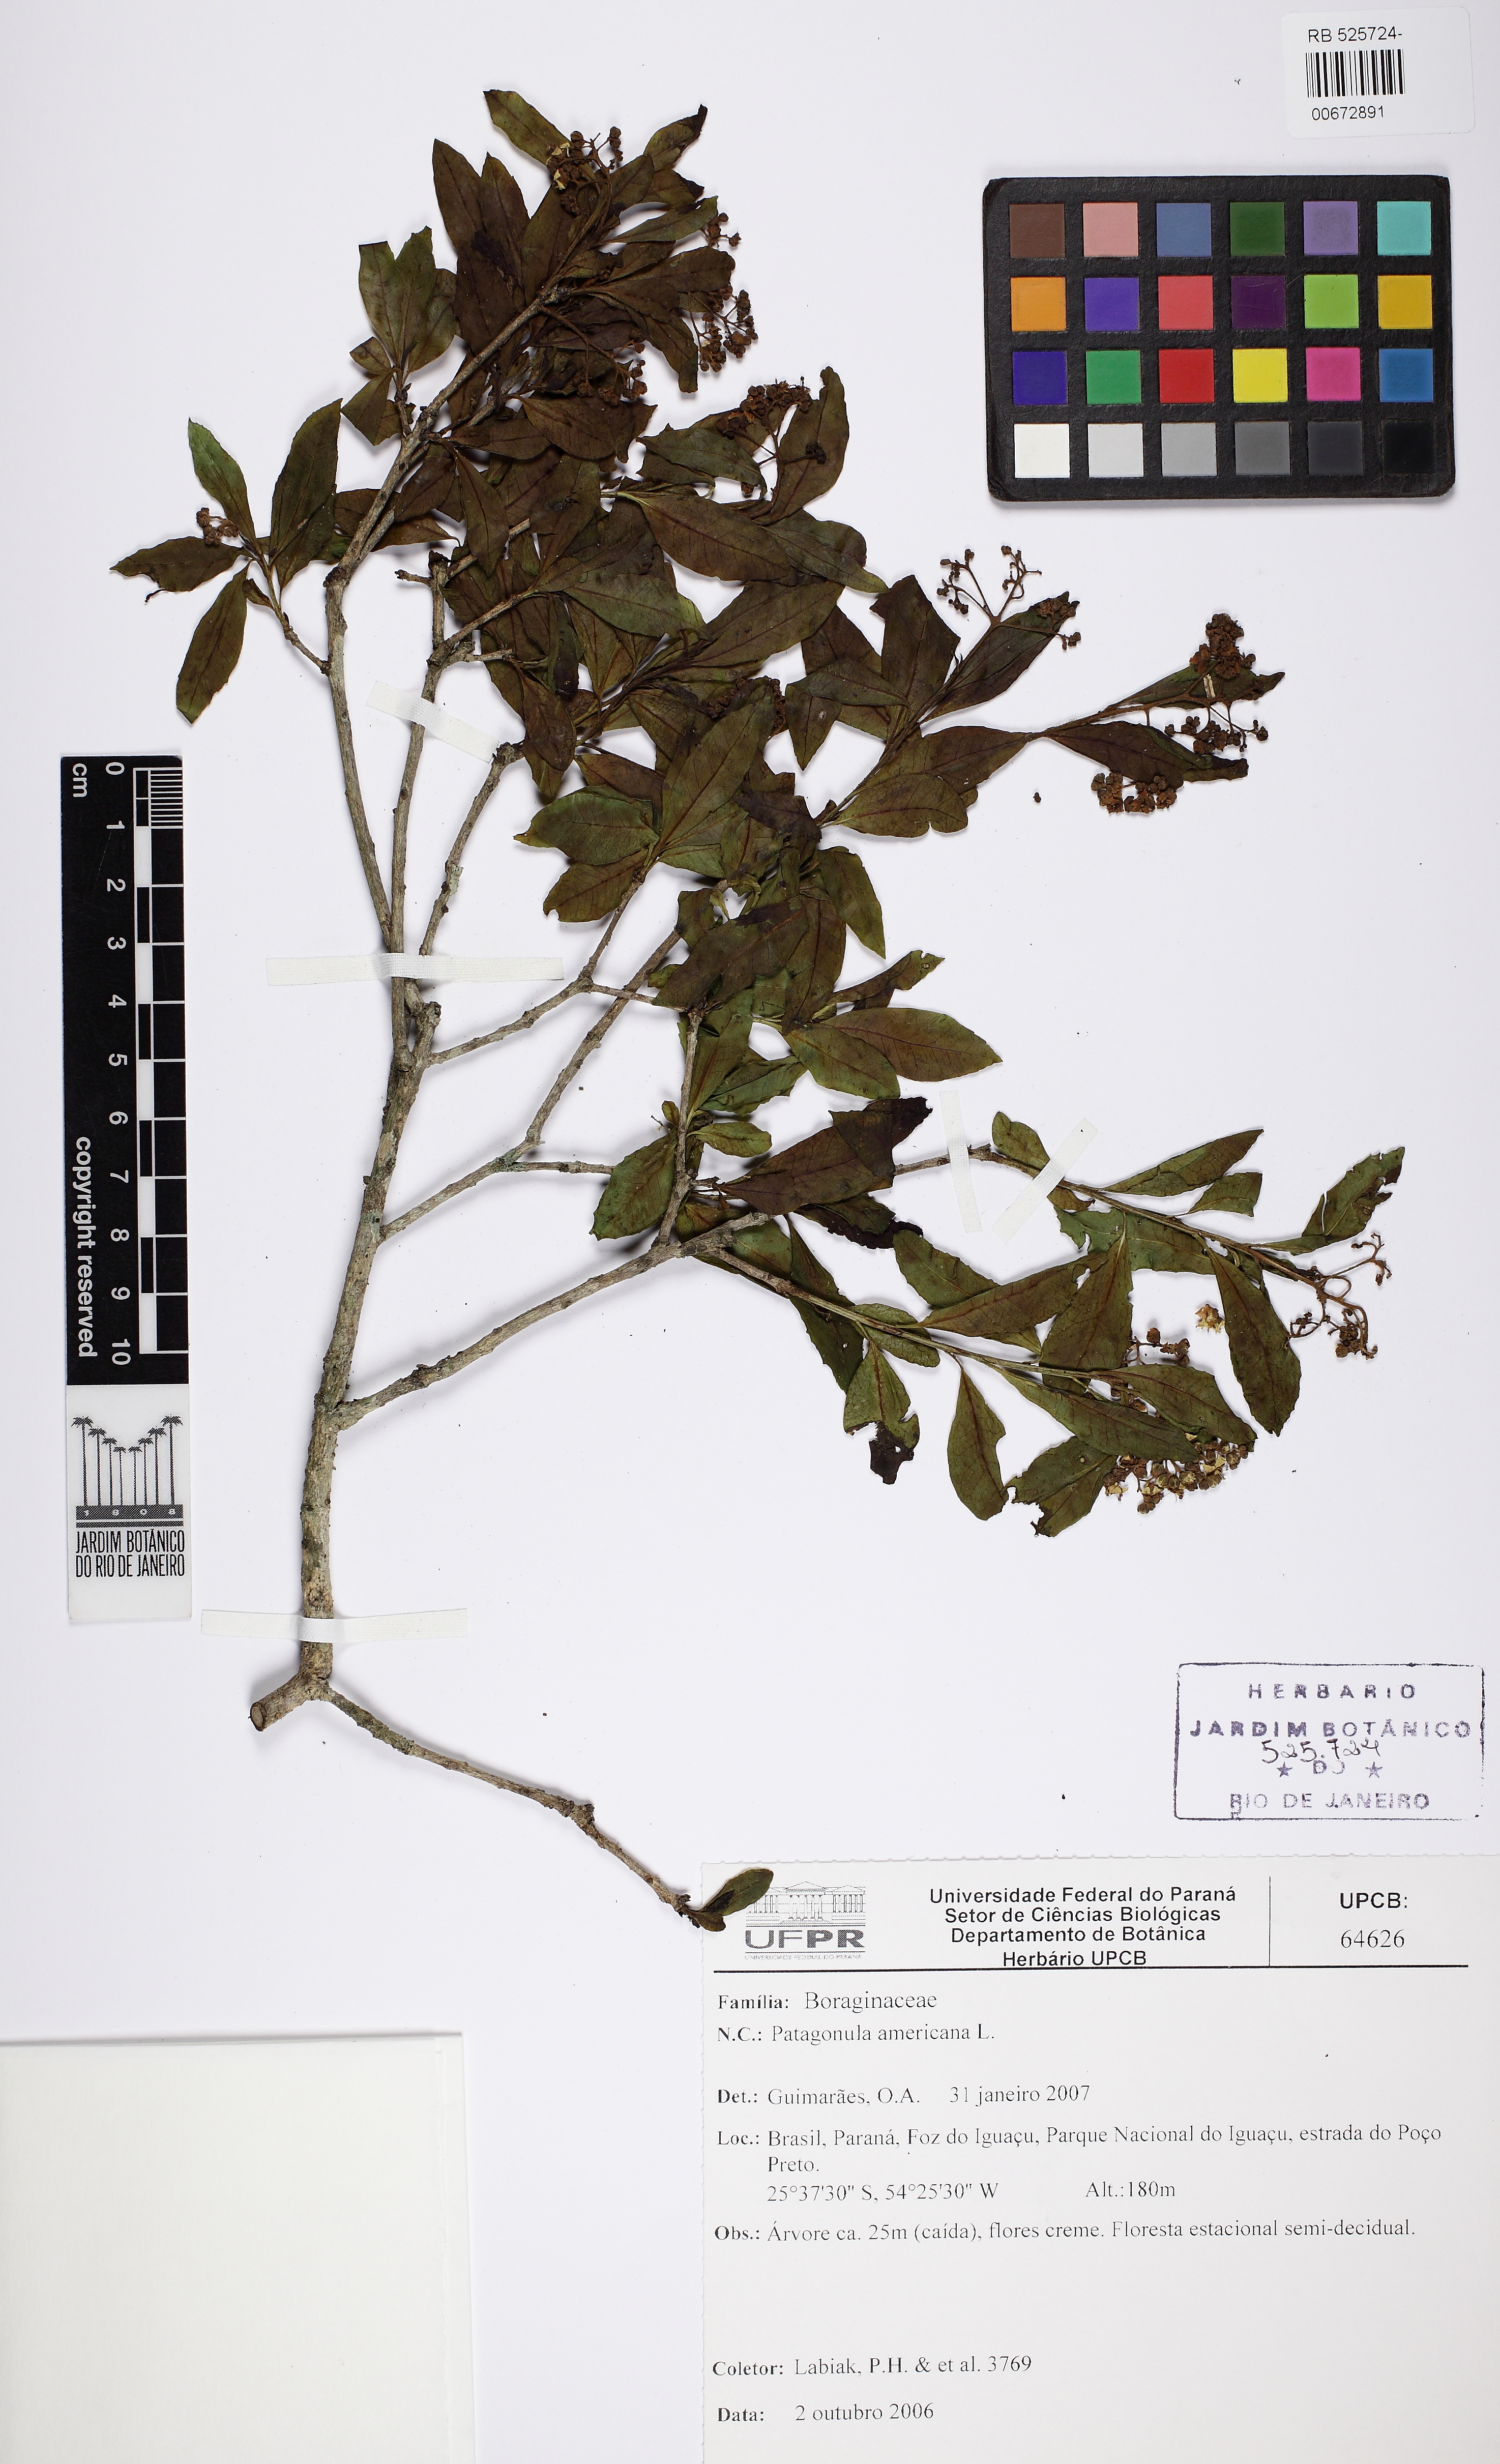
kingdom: Plantae
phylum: Tracheophyta
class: Magnoliopsida
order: Boraginales
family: Cordiaceae
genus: Cordia
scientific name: Cordia americana
